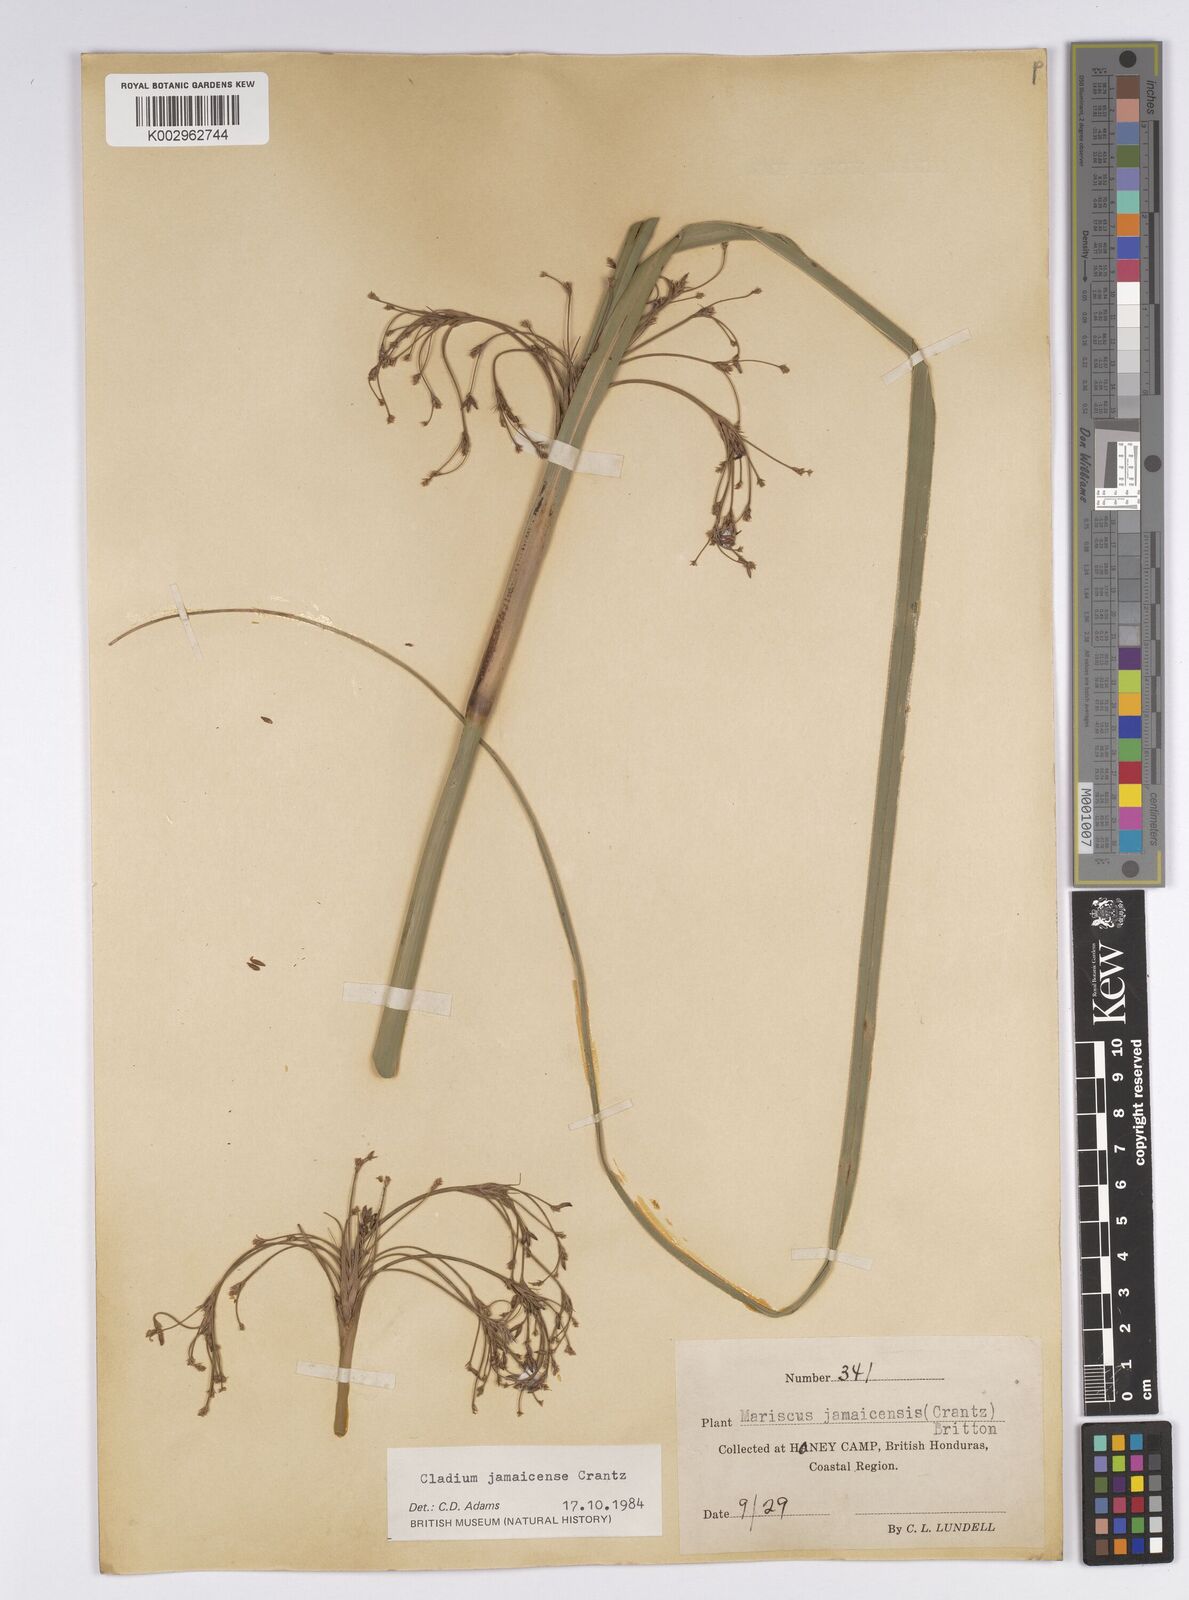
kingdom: Plantae
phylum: Tracheophyta
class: Liliopsida
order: Poales
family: Cyperaceae
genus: Cladium
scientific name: Cladium mariscus
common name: Great fen-sedge
